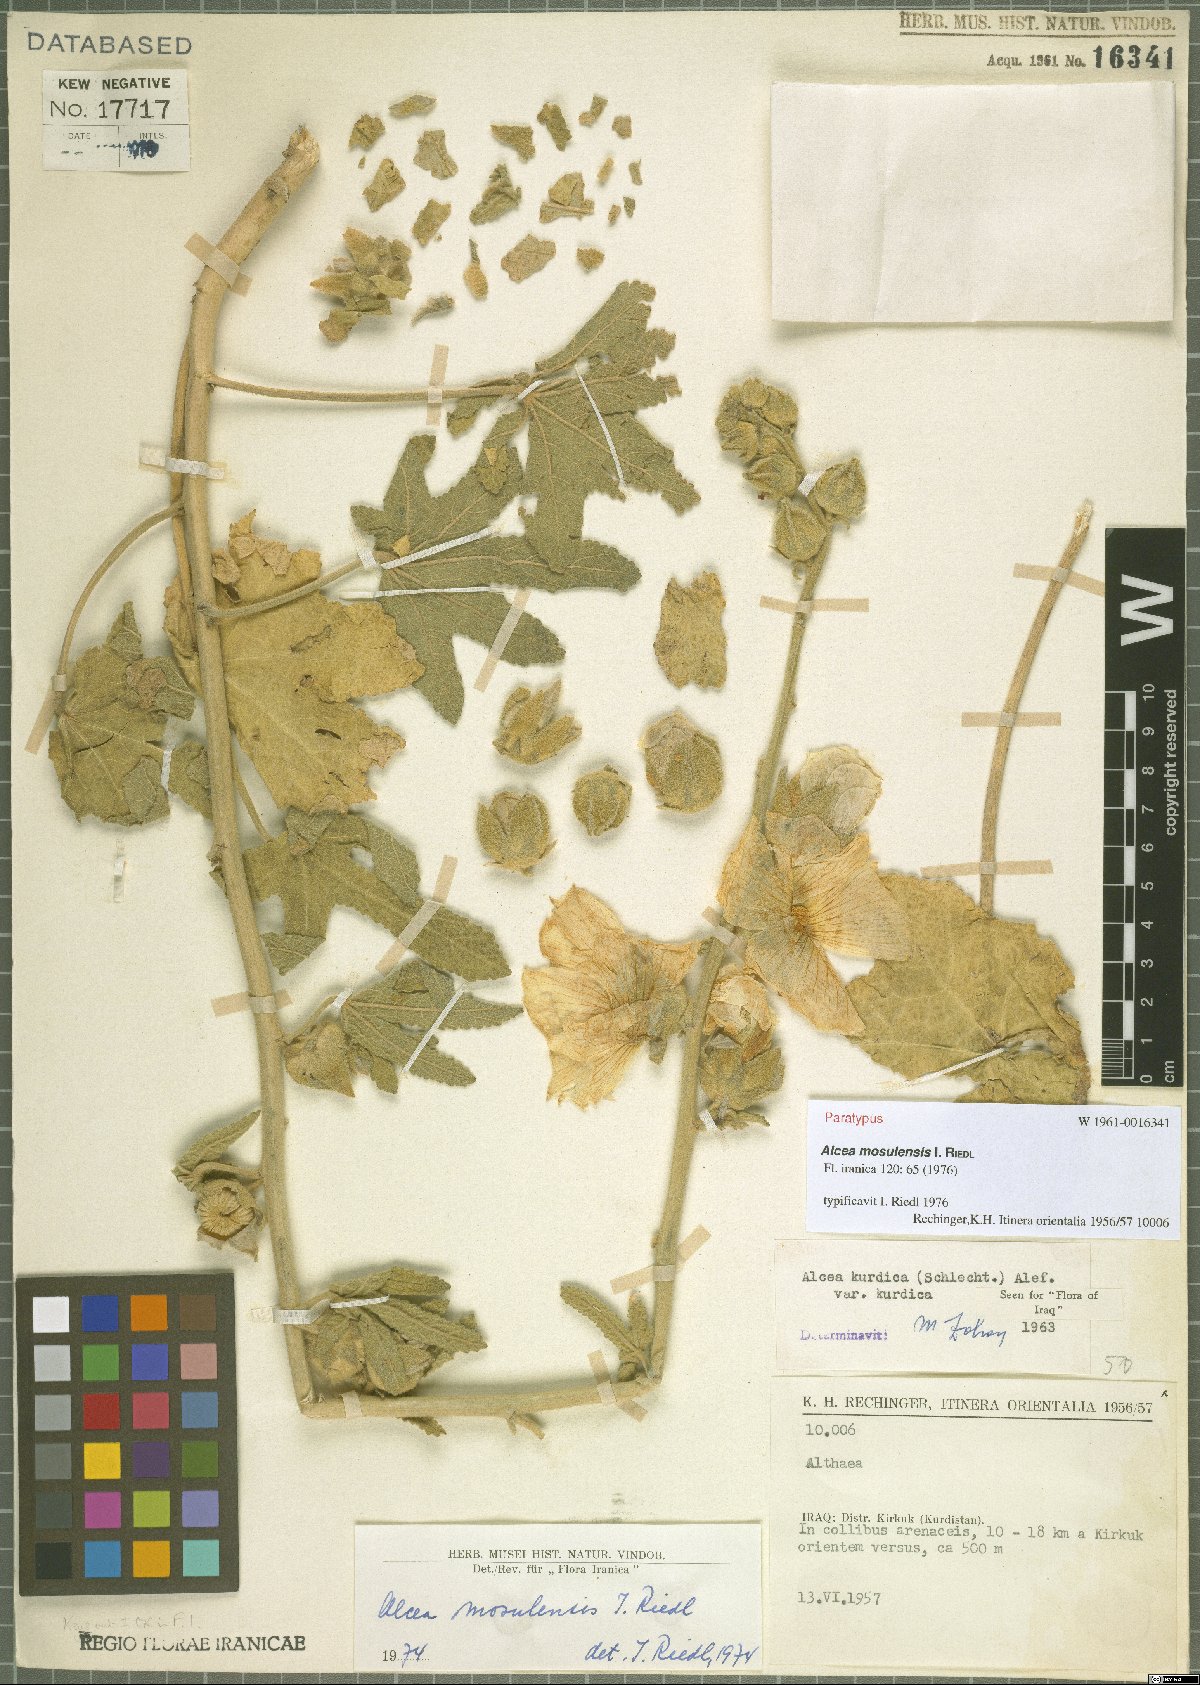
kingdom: Plantae
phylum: Tracheophyta
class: Magnoliopsida
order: Malvales
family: Malvaceae
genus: Alcea
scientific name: Alcea kurdica
